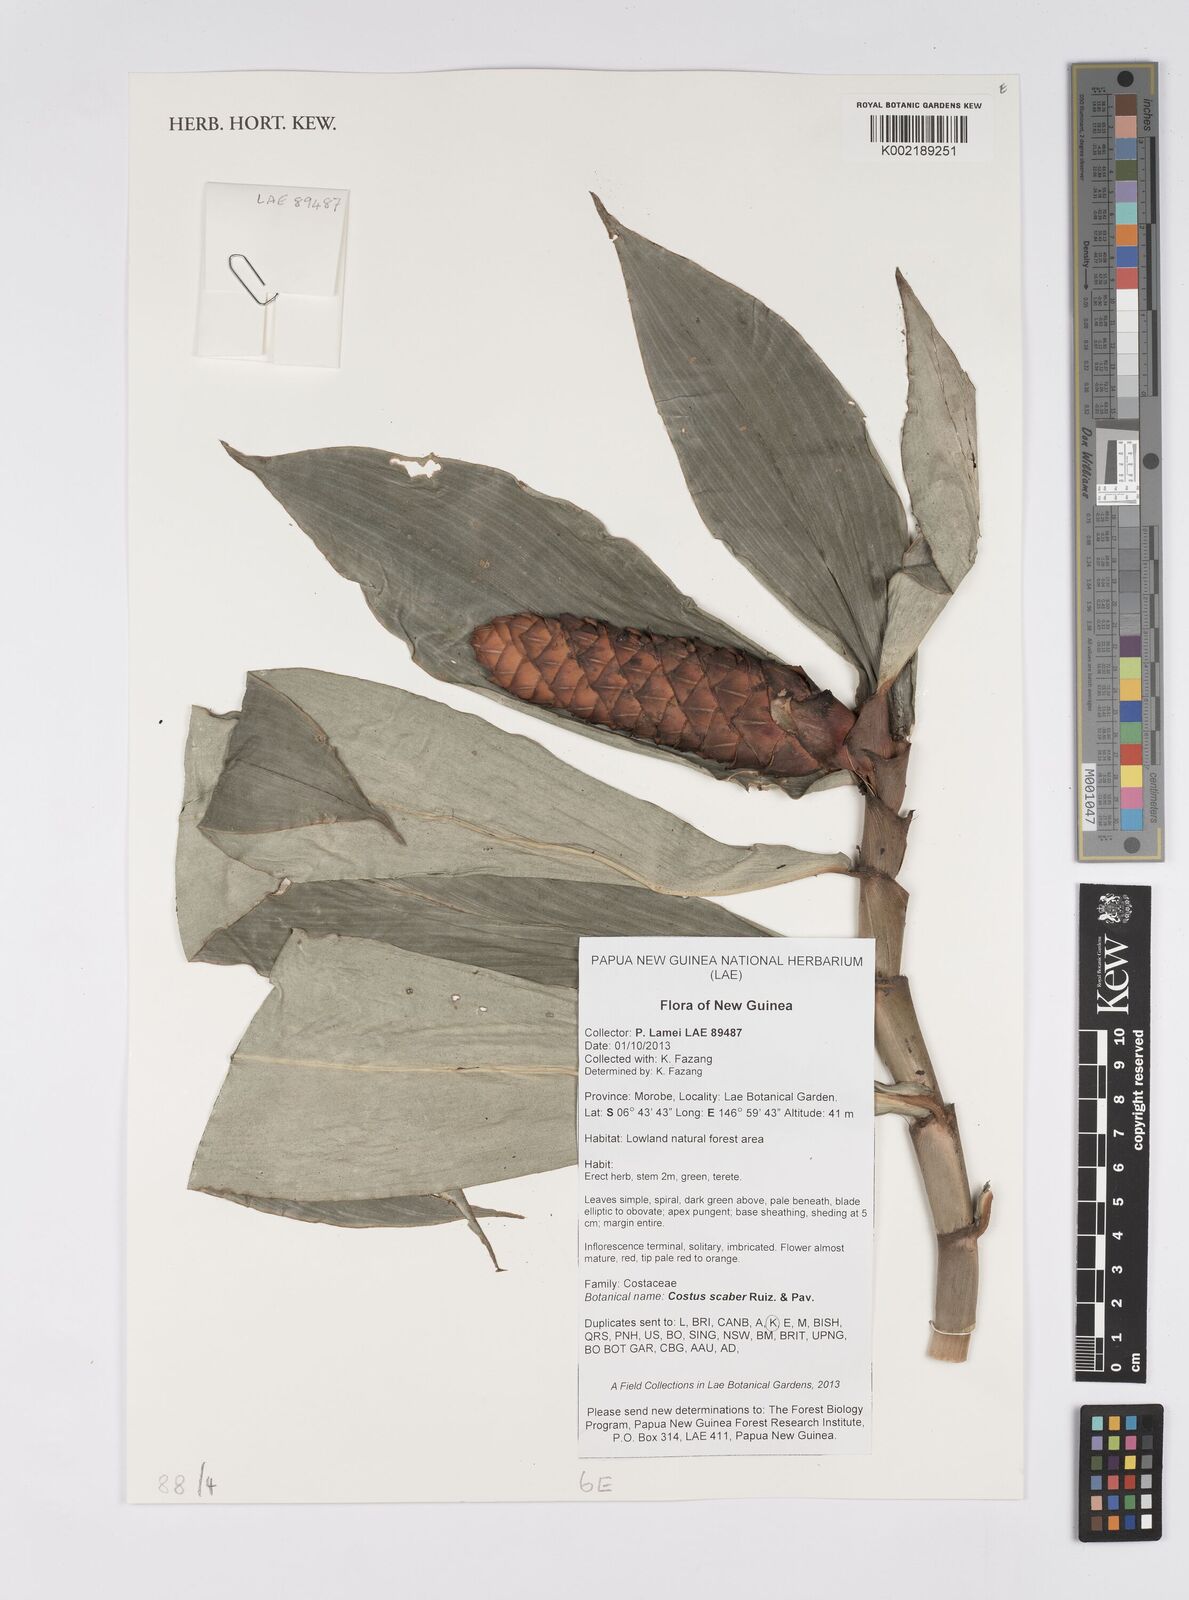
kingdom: Plantae
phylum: Tracheophyta
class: Liliopsida
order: Zingiberales
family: Costaceae
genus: Costus
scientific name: Costus scaber
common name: Spiral head ginger
